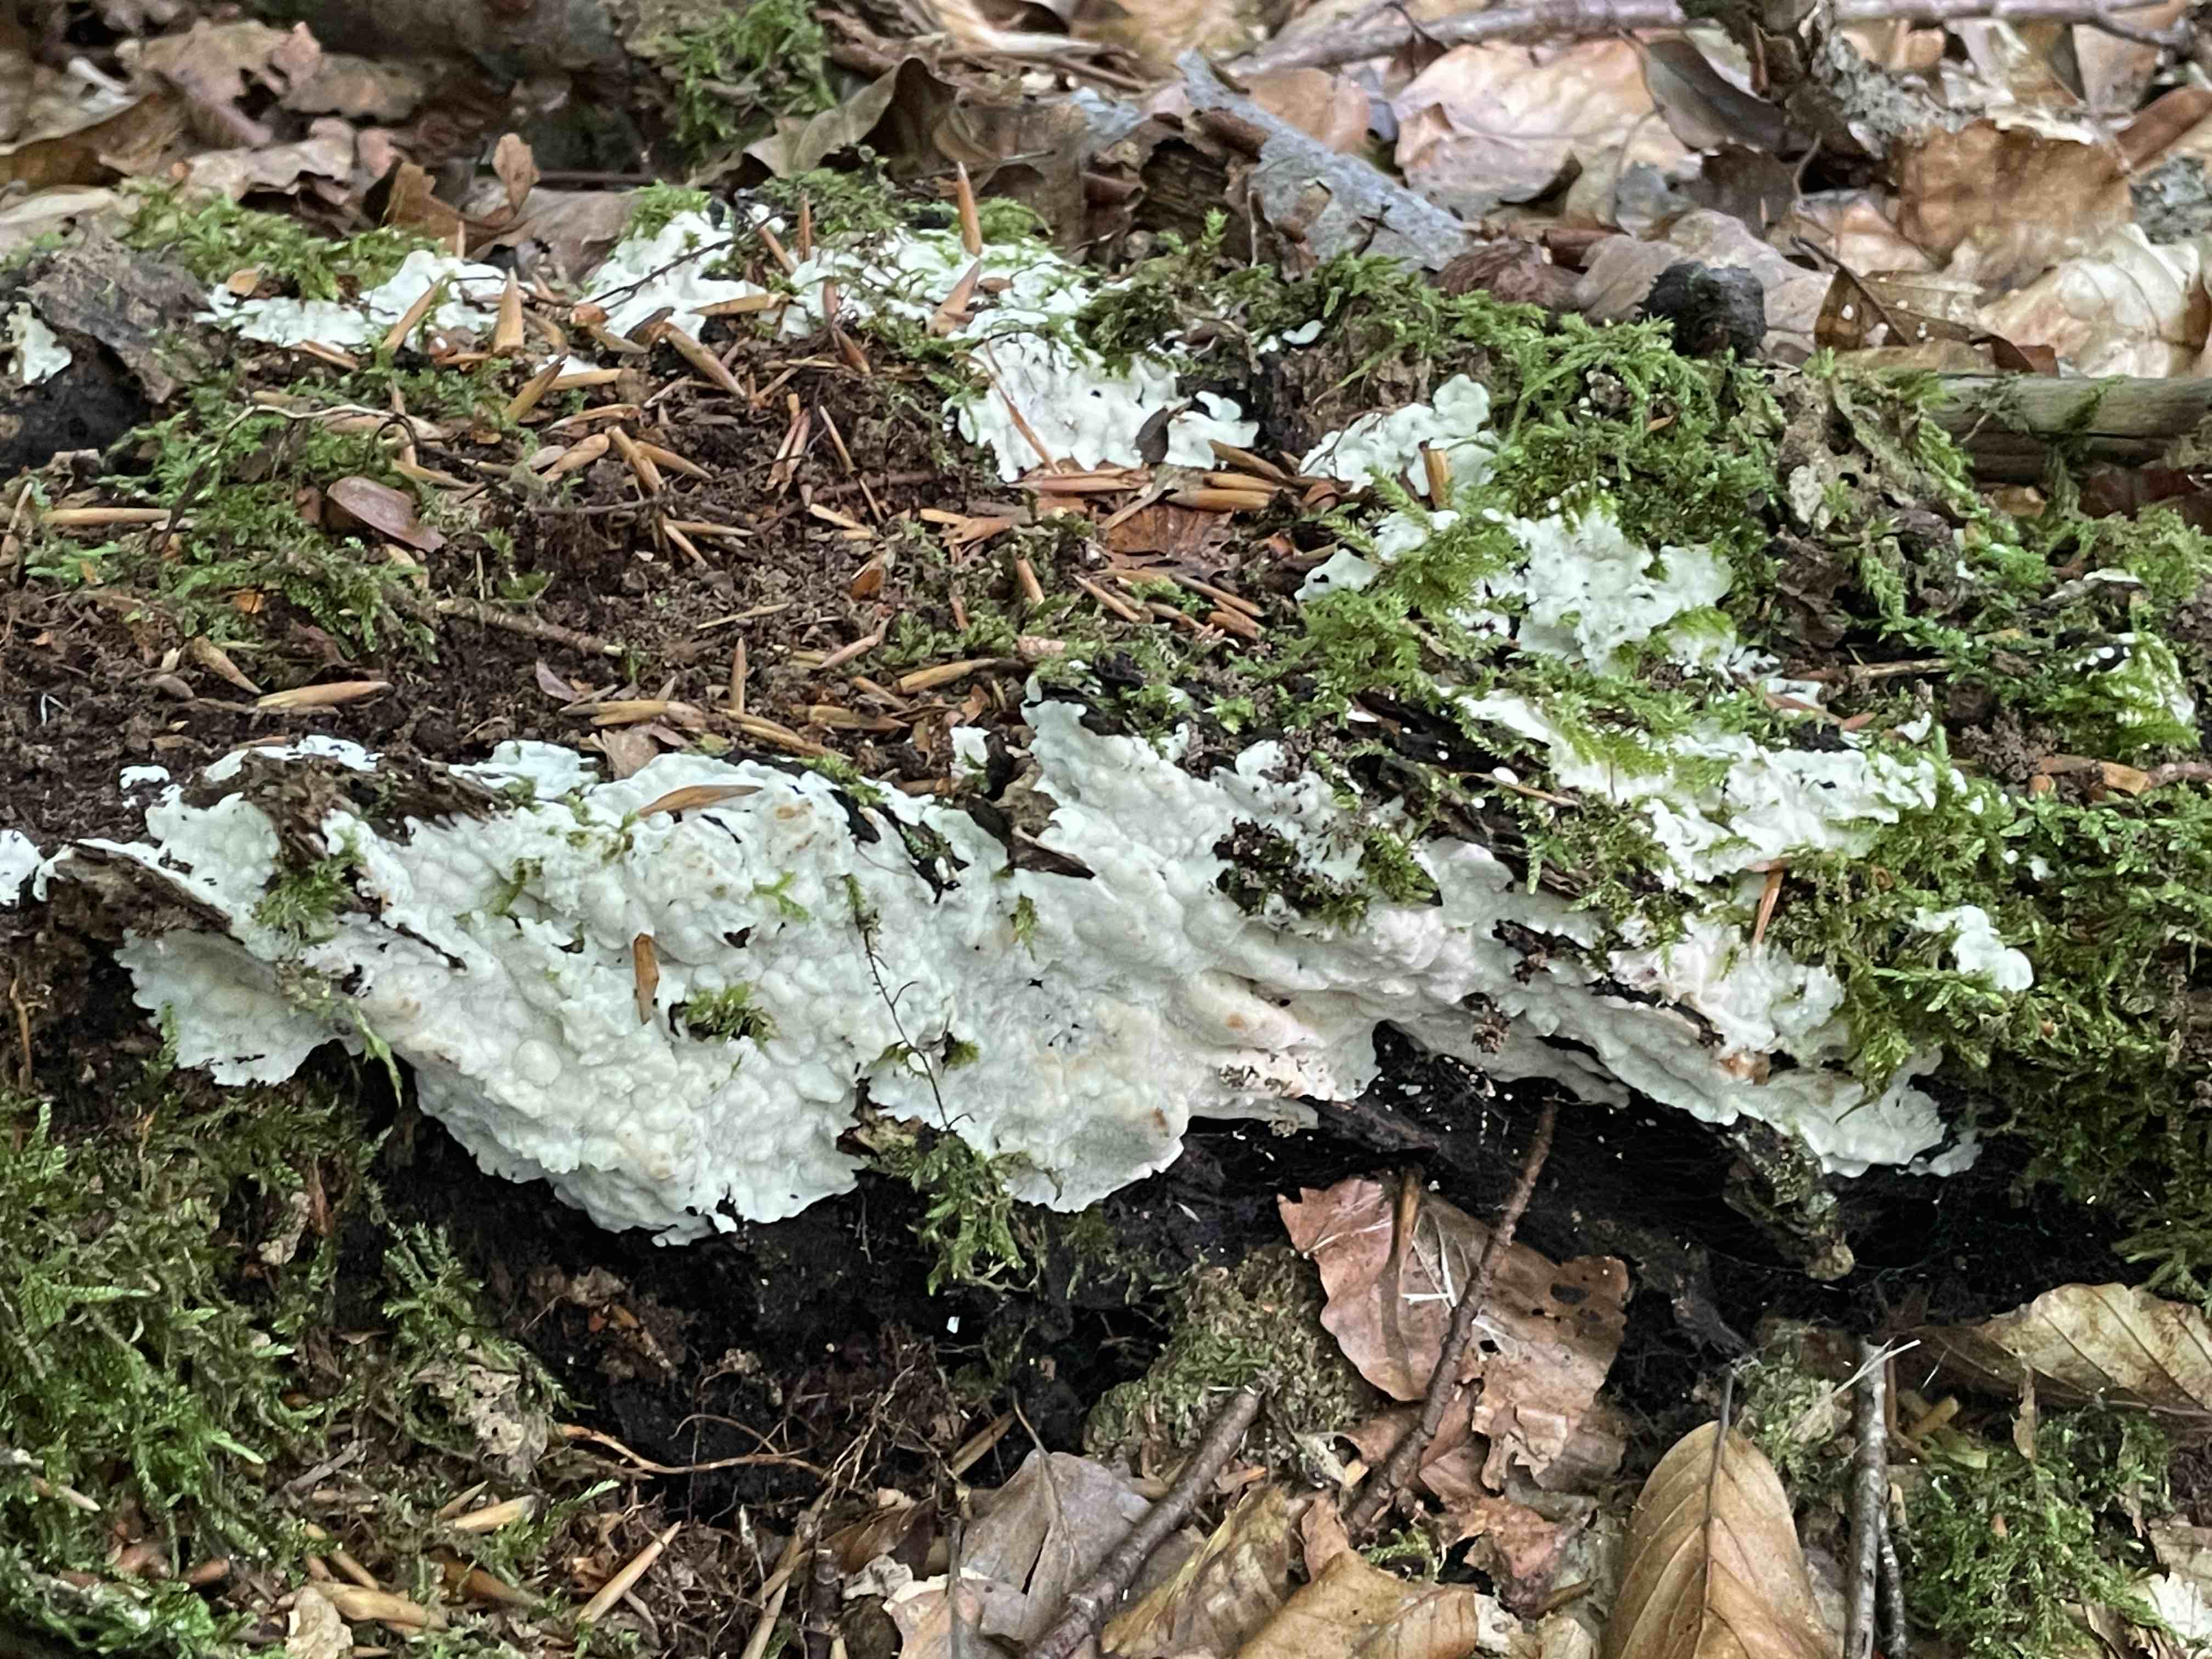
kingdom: Fungi
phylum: Basidiomycota
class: Agaricomycetes
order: Polyporales
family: Meruliaceae
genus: Physisporinus
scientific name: Physisporinus vitreus
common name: mastesvamp
